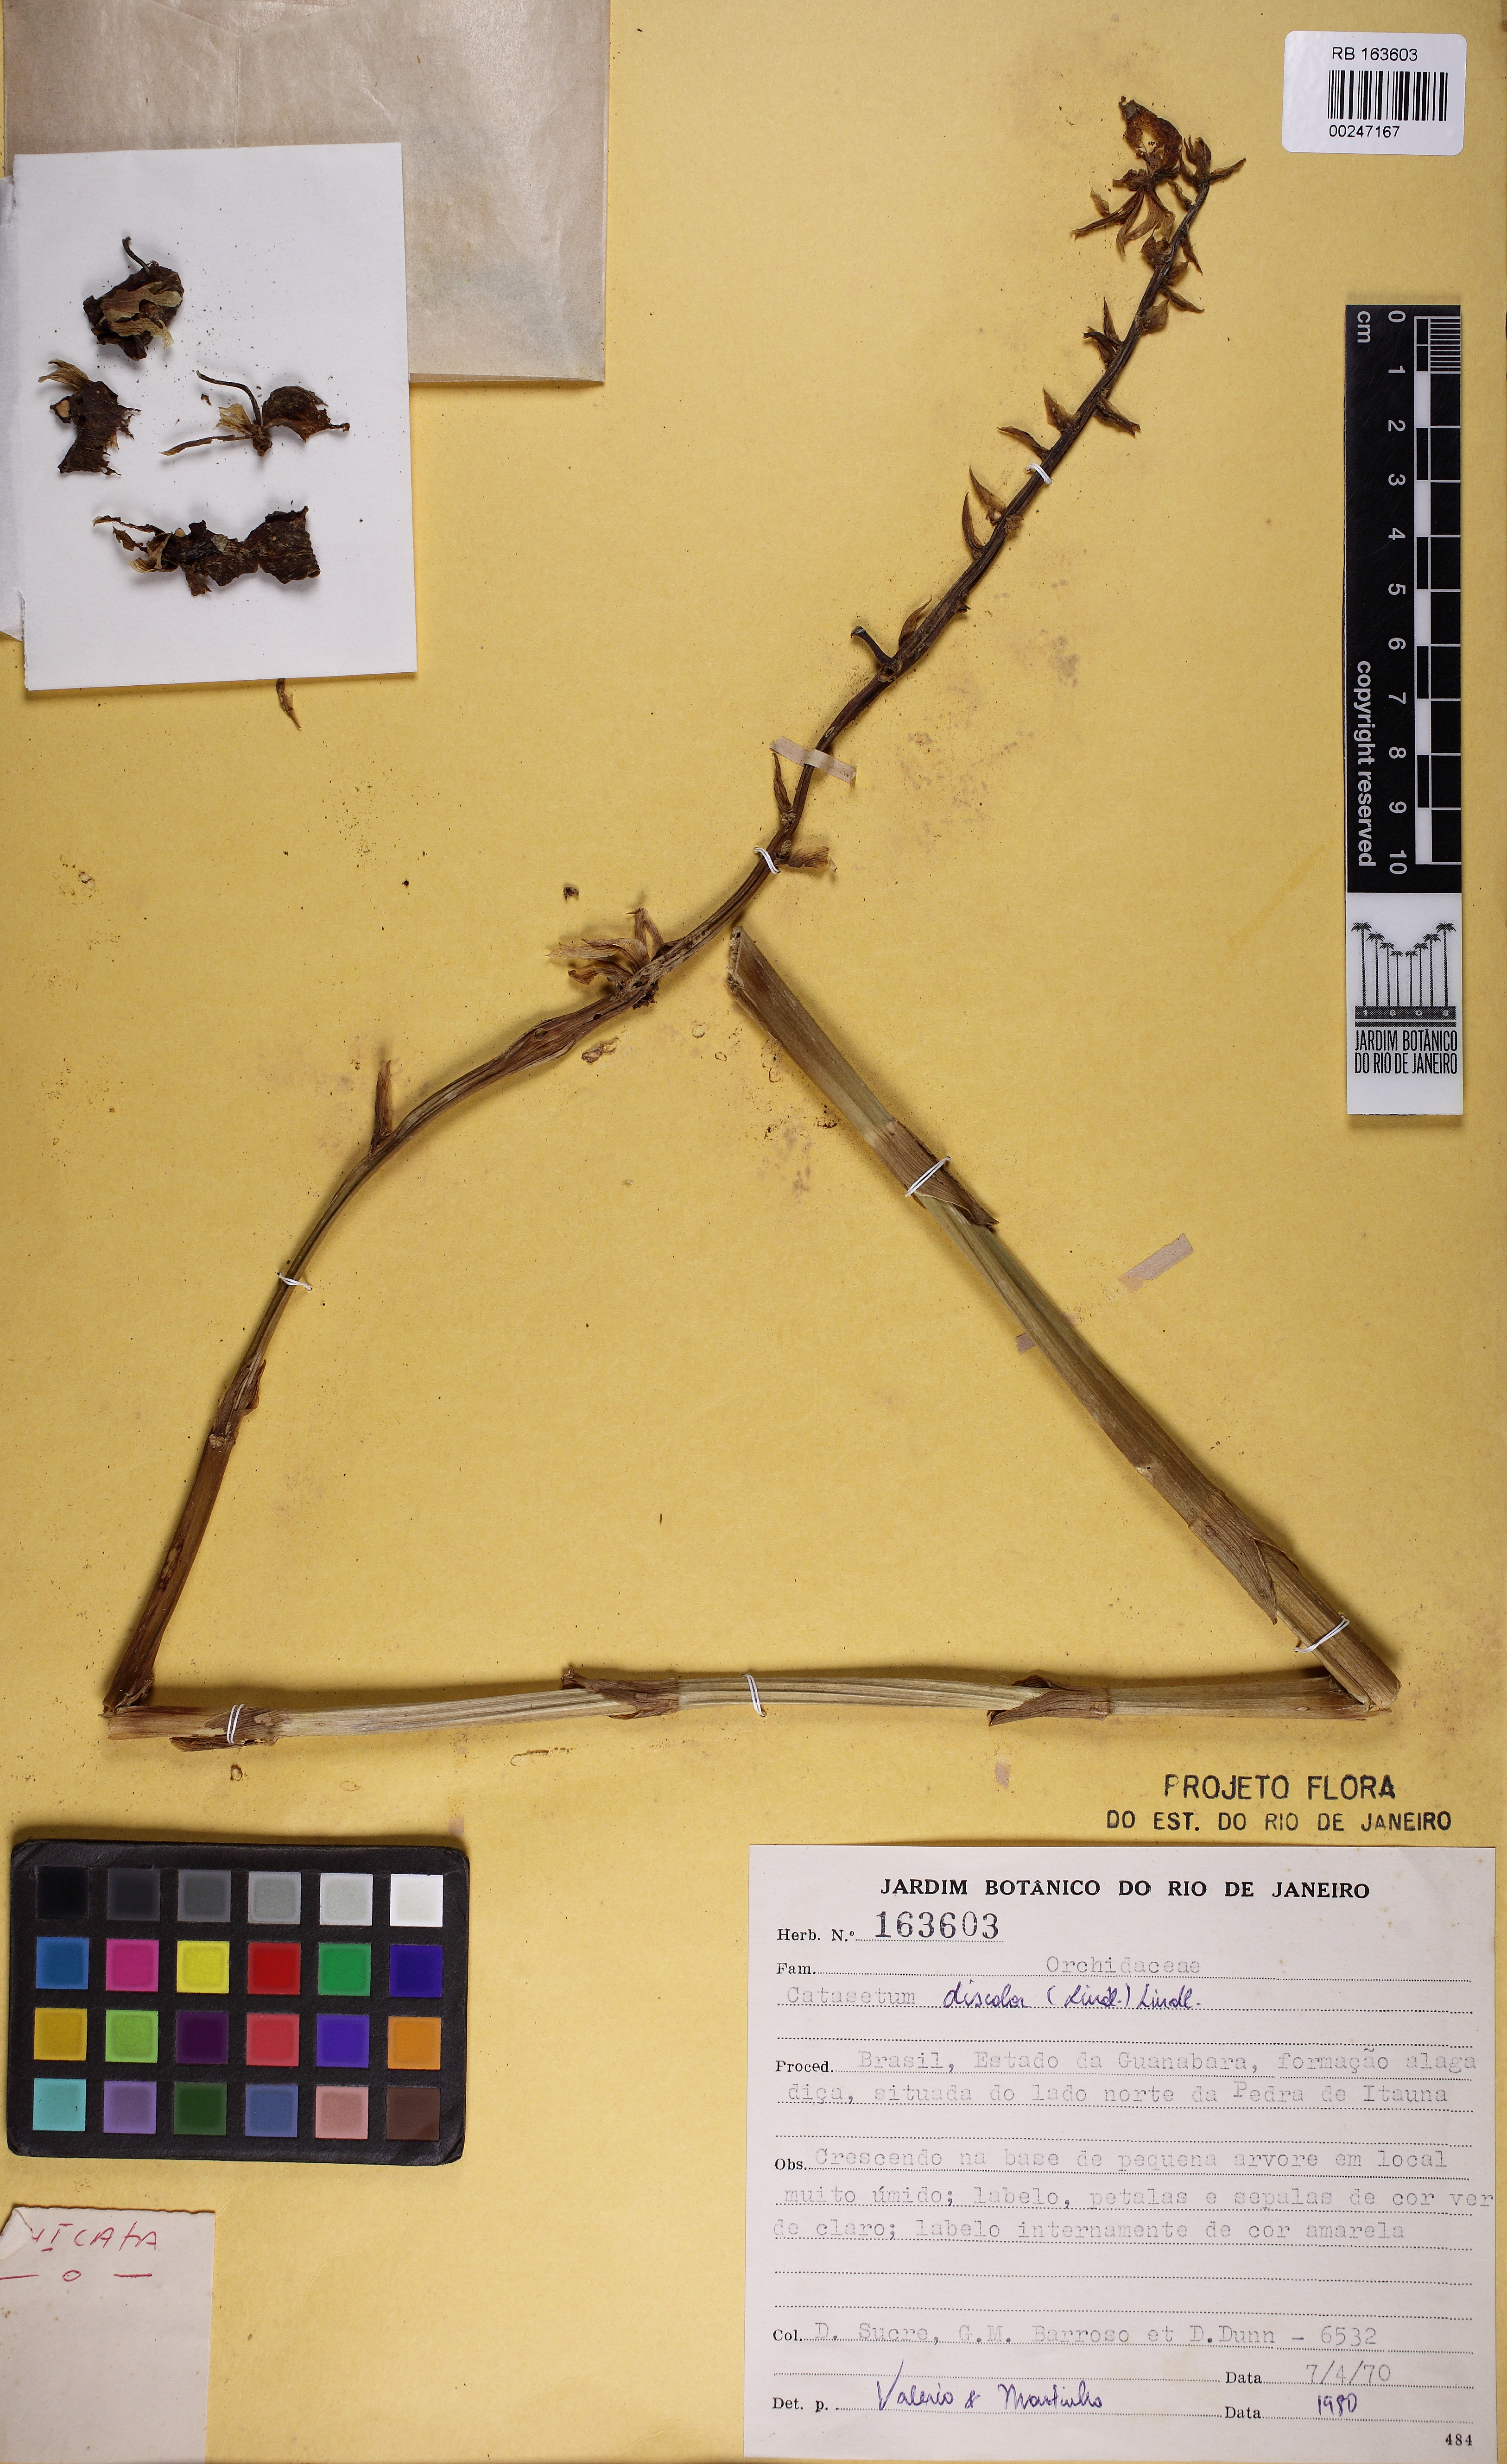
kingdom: Plantae
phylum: Tracheophyta
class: Liliopsida
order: Asparagales
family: Orchidaceae
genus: Catasetum
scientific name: Catasetum gardneri
